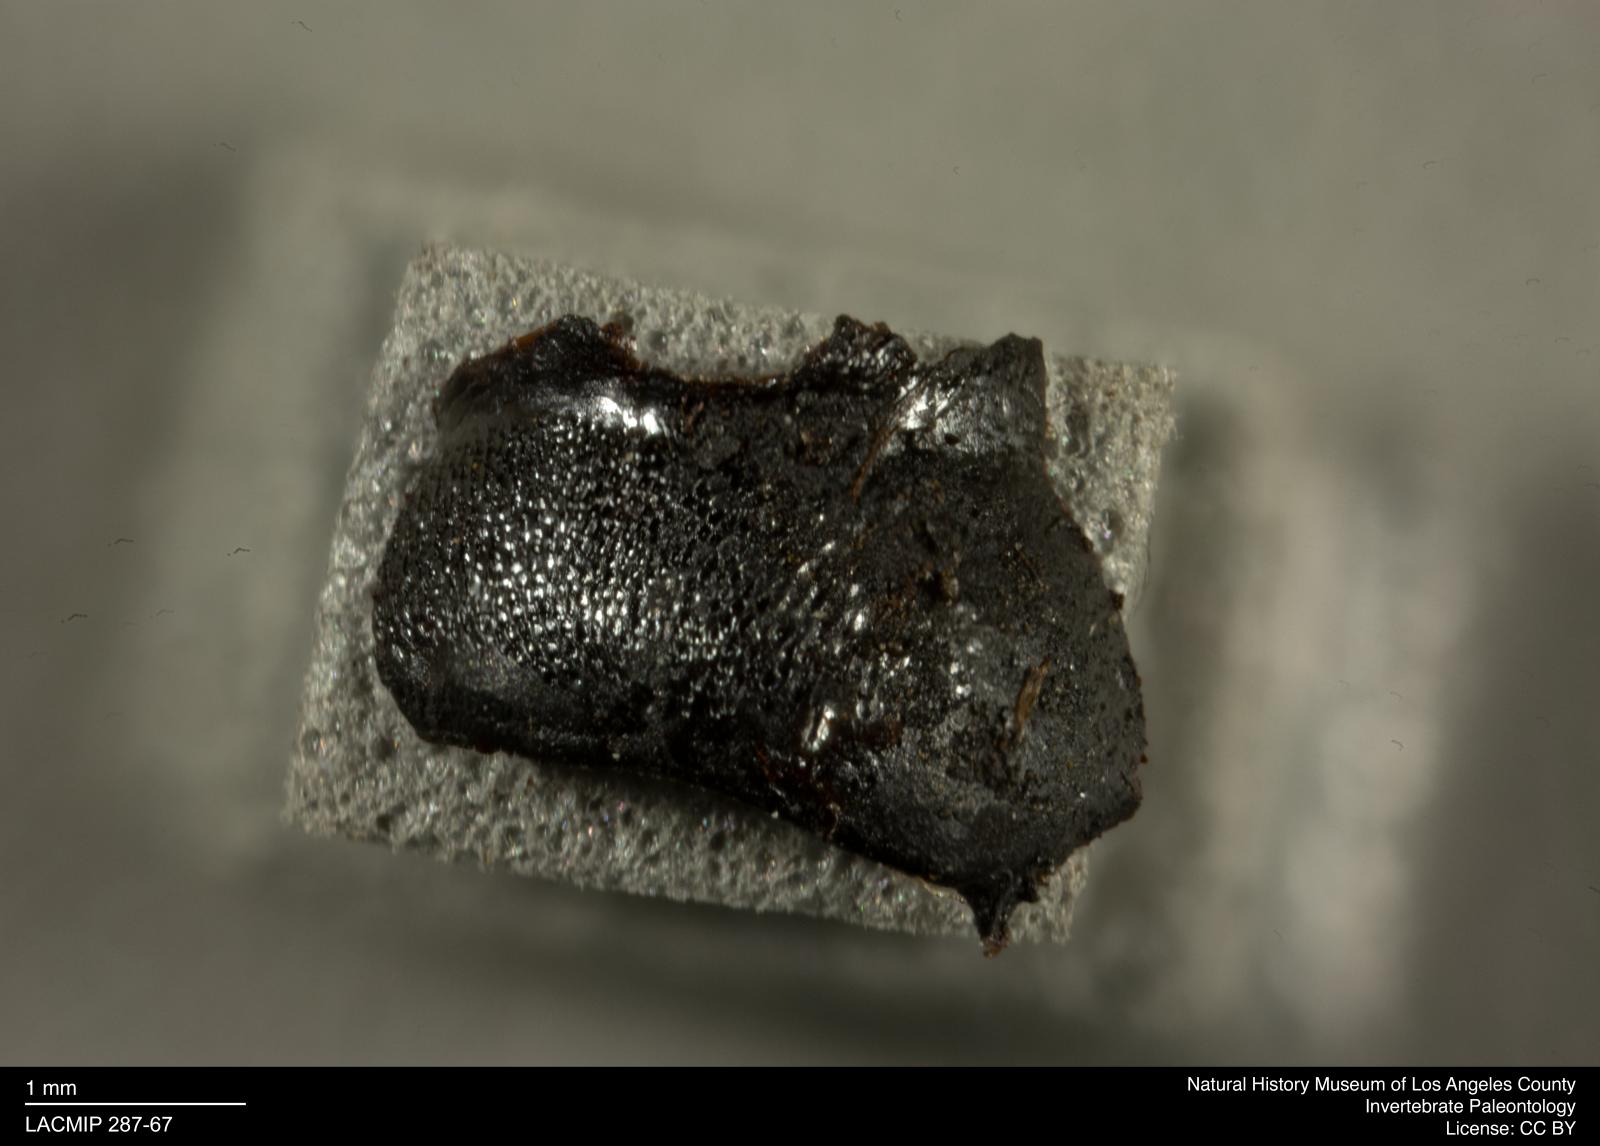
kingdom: Animalia
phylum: Arthropoda
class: Insecta
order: Coleoptera
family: Staphylinidae
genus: Nicrophorus
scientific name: Nicrophorus marginatus
